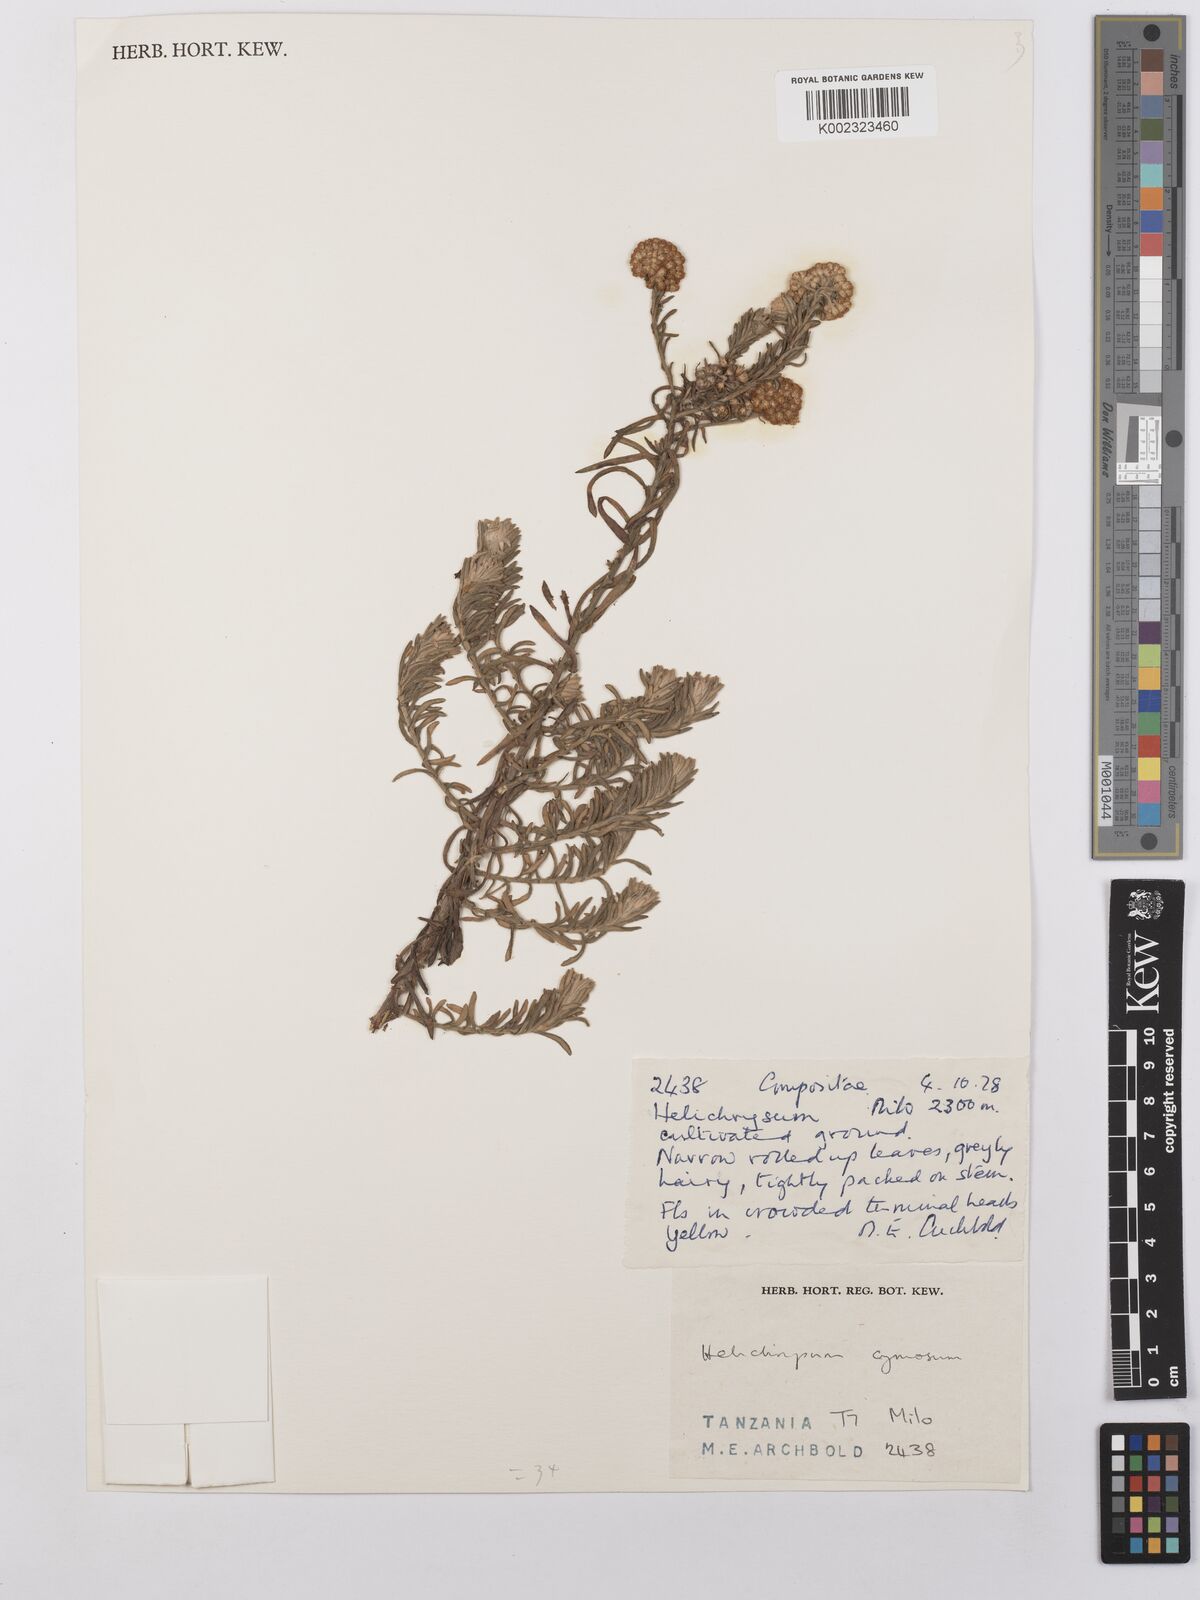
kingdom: Plantae
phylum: Tracheophyta
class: Magnoliopsida
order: Asterales
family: Asteraceae
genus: Helichrysum
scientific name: Helichrysum forskahlii
